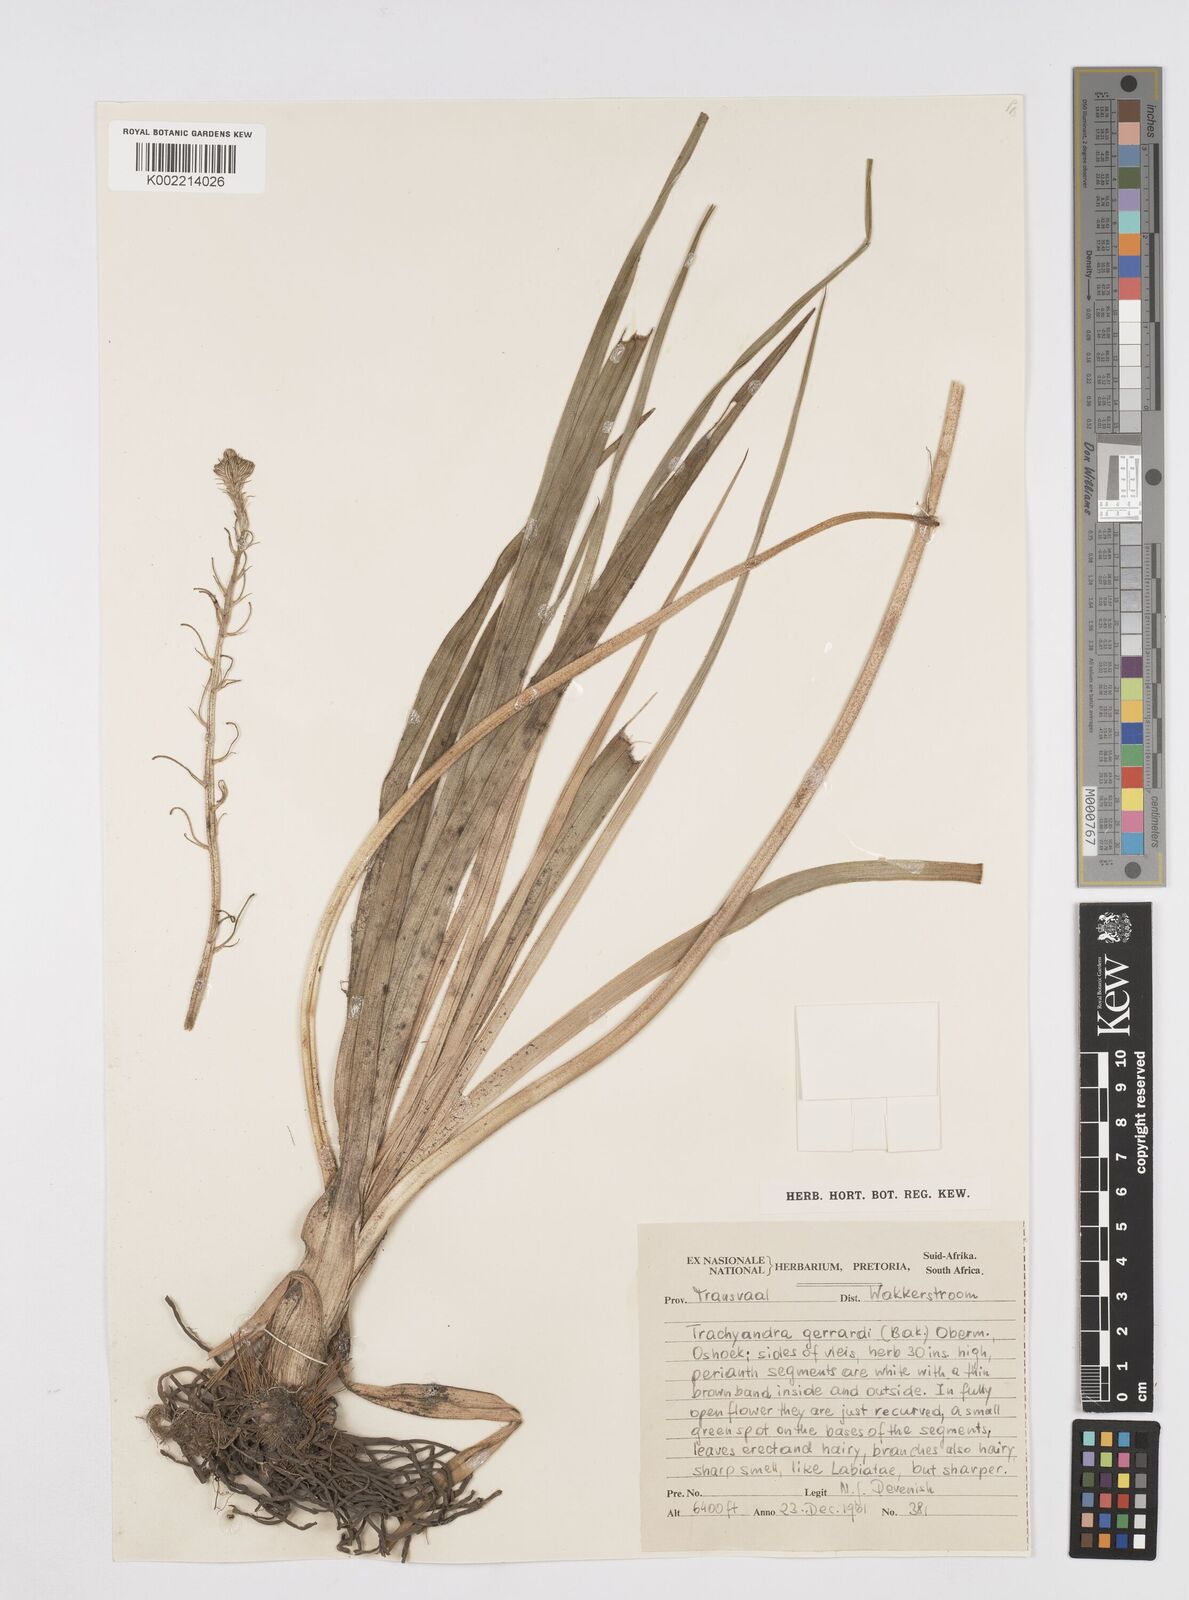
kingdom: Plantae
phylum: Tracheophyta
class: Liliopsida
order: Asparagales
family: Asphodelaceae
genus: Trachyandra
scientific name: Trachyandra gerrardii
